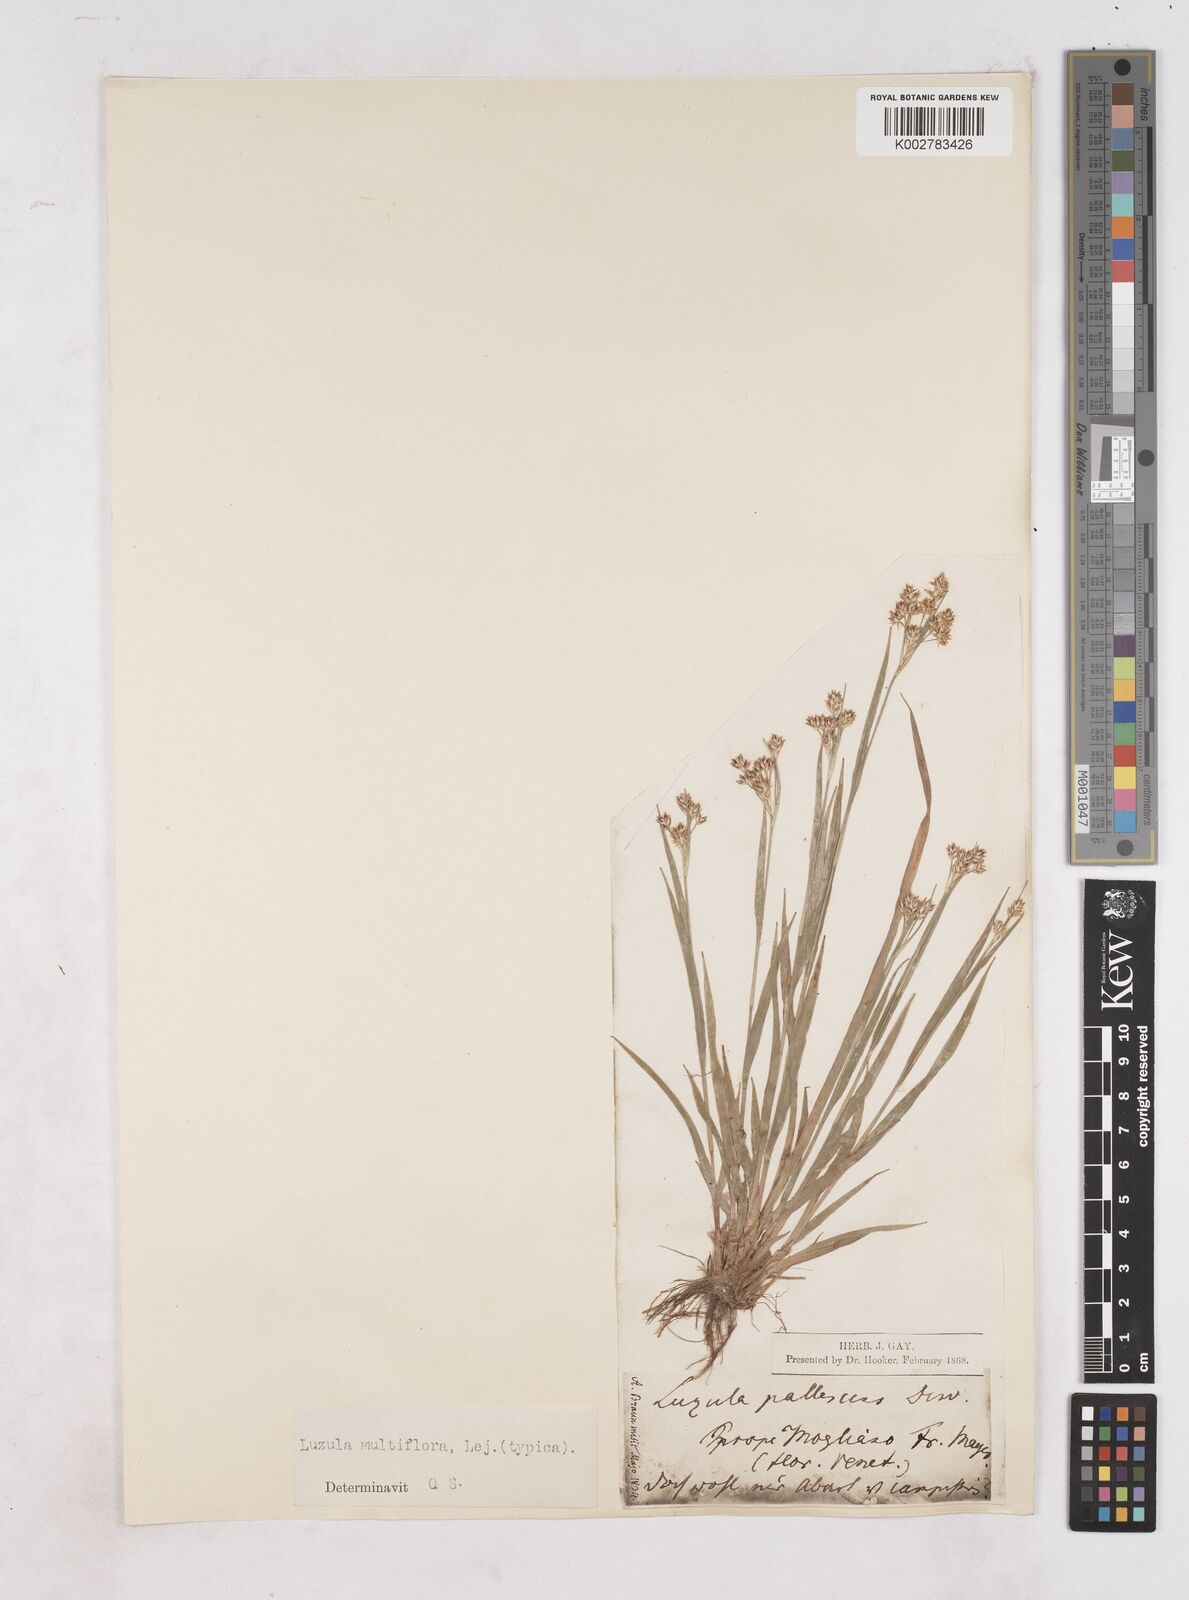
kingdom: Plantae
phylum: Tracheophyta
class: Liliopsida
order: Poales
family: Juncaceae
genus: Luzula
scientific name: Luzula multiflora
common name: Heath wood-rush
